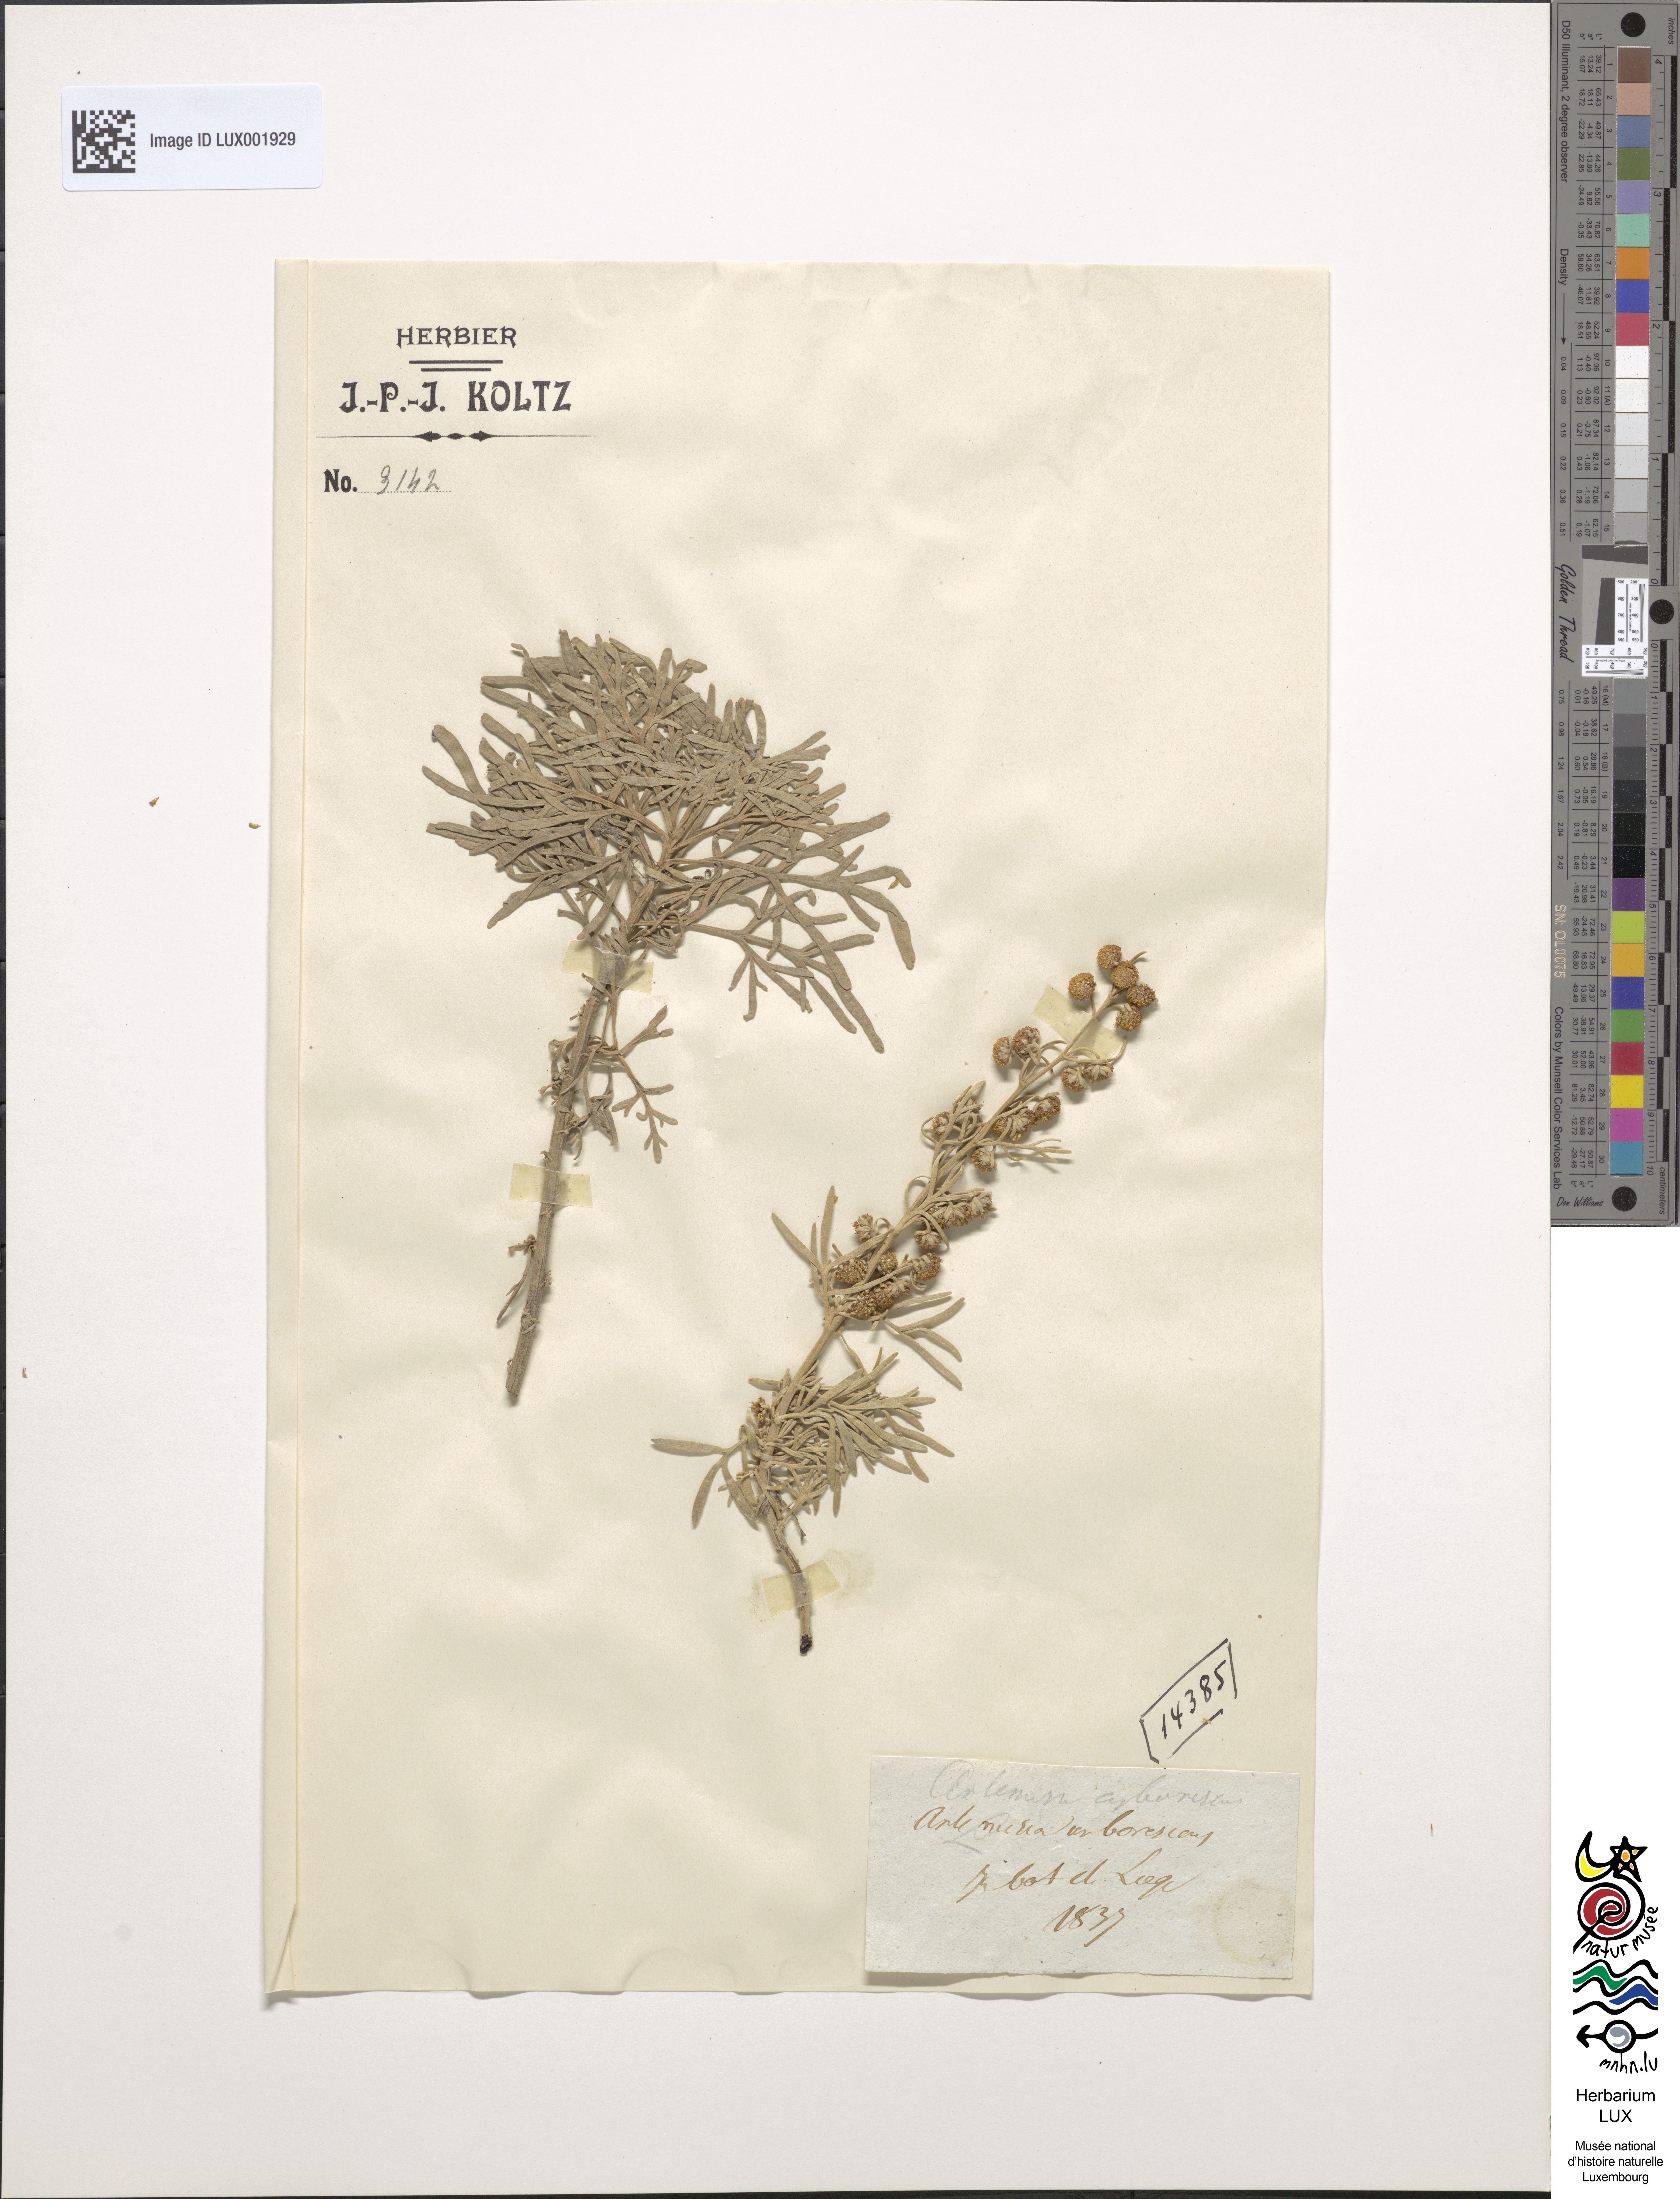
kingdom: Plantae
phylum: Tracheophyta
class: Magnoliopsida
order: Asterales
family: Asteraceae
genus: Artemisia
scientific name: Artemisia arborescens
